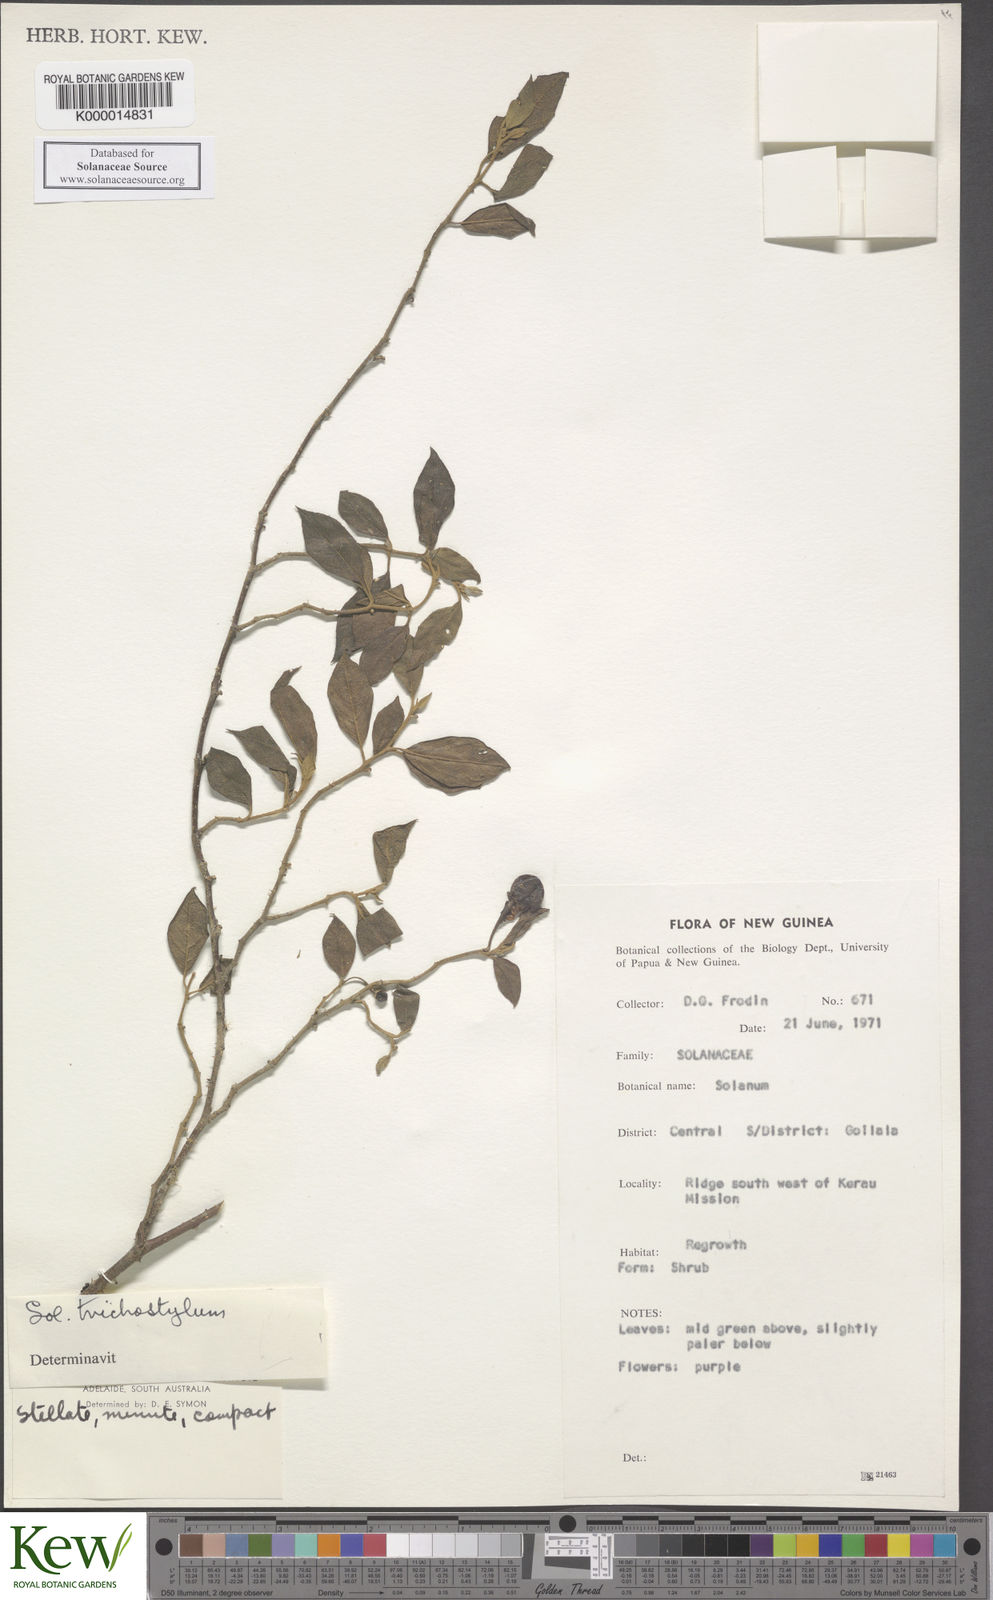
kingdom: Plantae
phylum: Tracheophyta
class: Magnoliopsida
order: Solanales
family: Solanaceae
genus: Solanum
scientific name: Solanum expedunculatum
